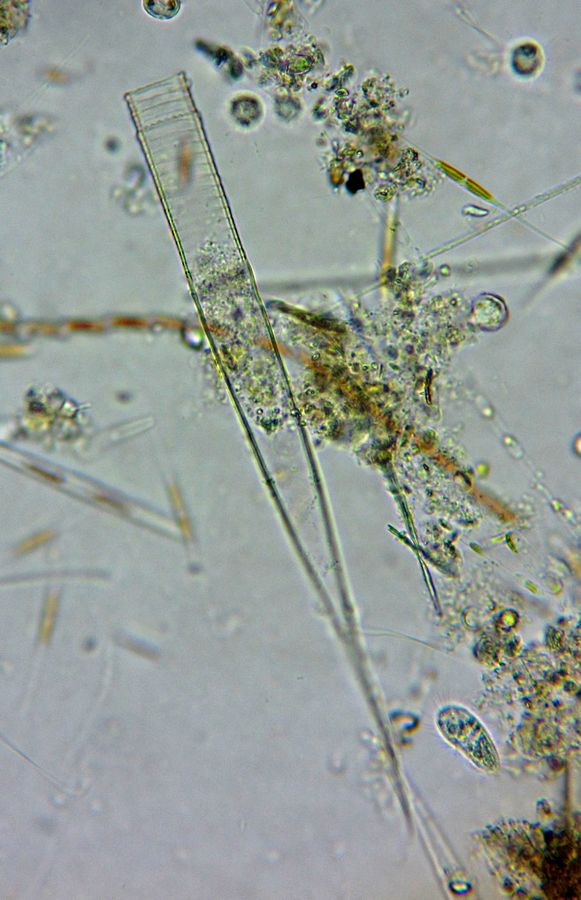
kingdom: Chromista
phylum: Ciliophora
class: Oligotrichea
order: Choreotrichida
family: Metacylididae
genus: Helicostomella
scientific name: Helicostomella subulata
